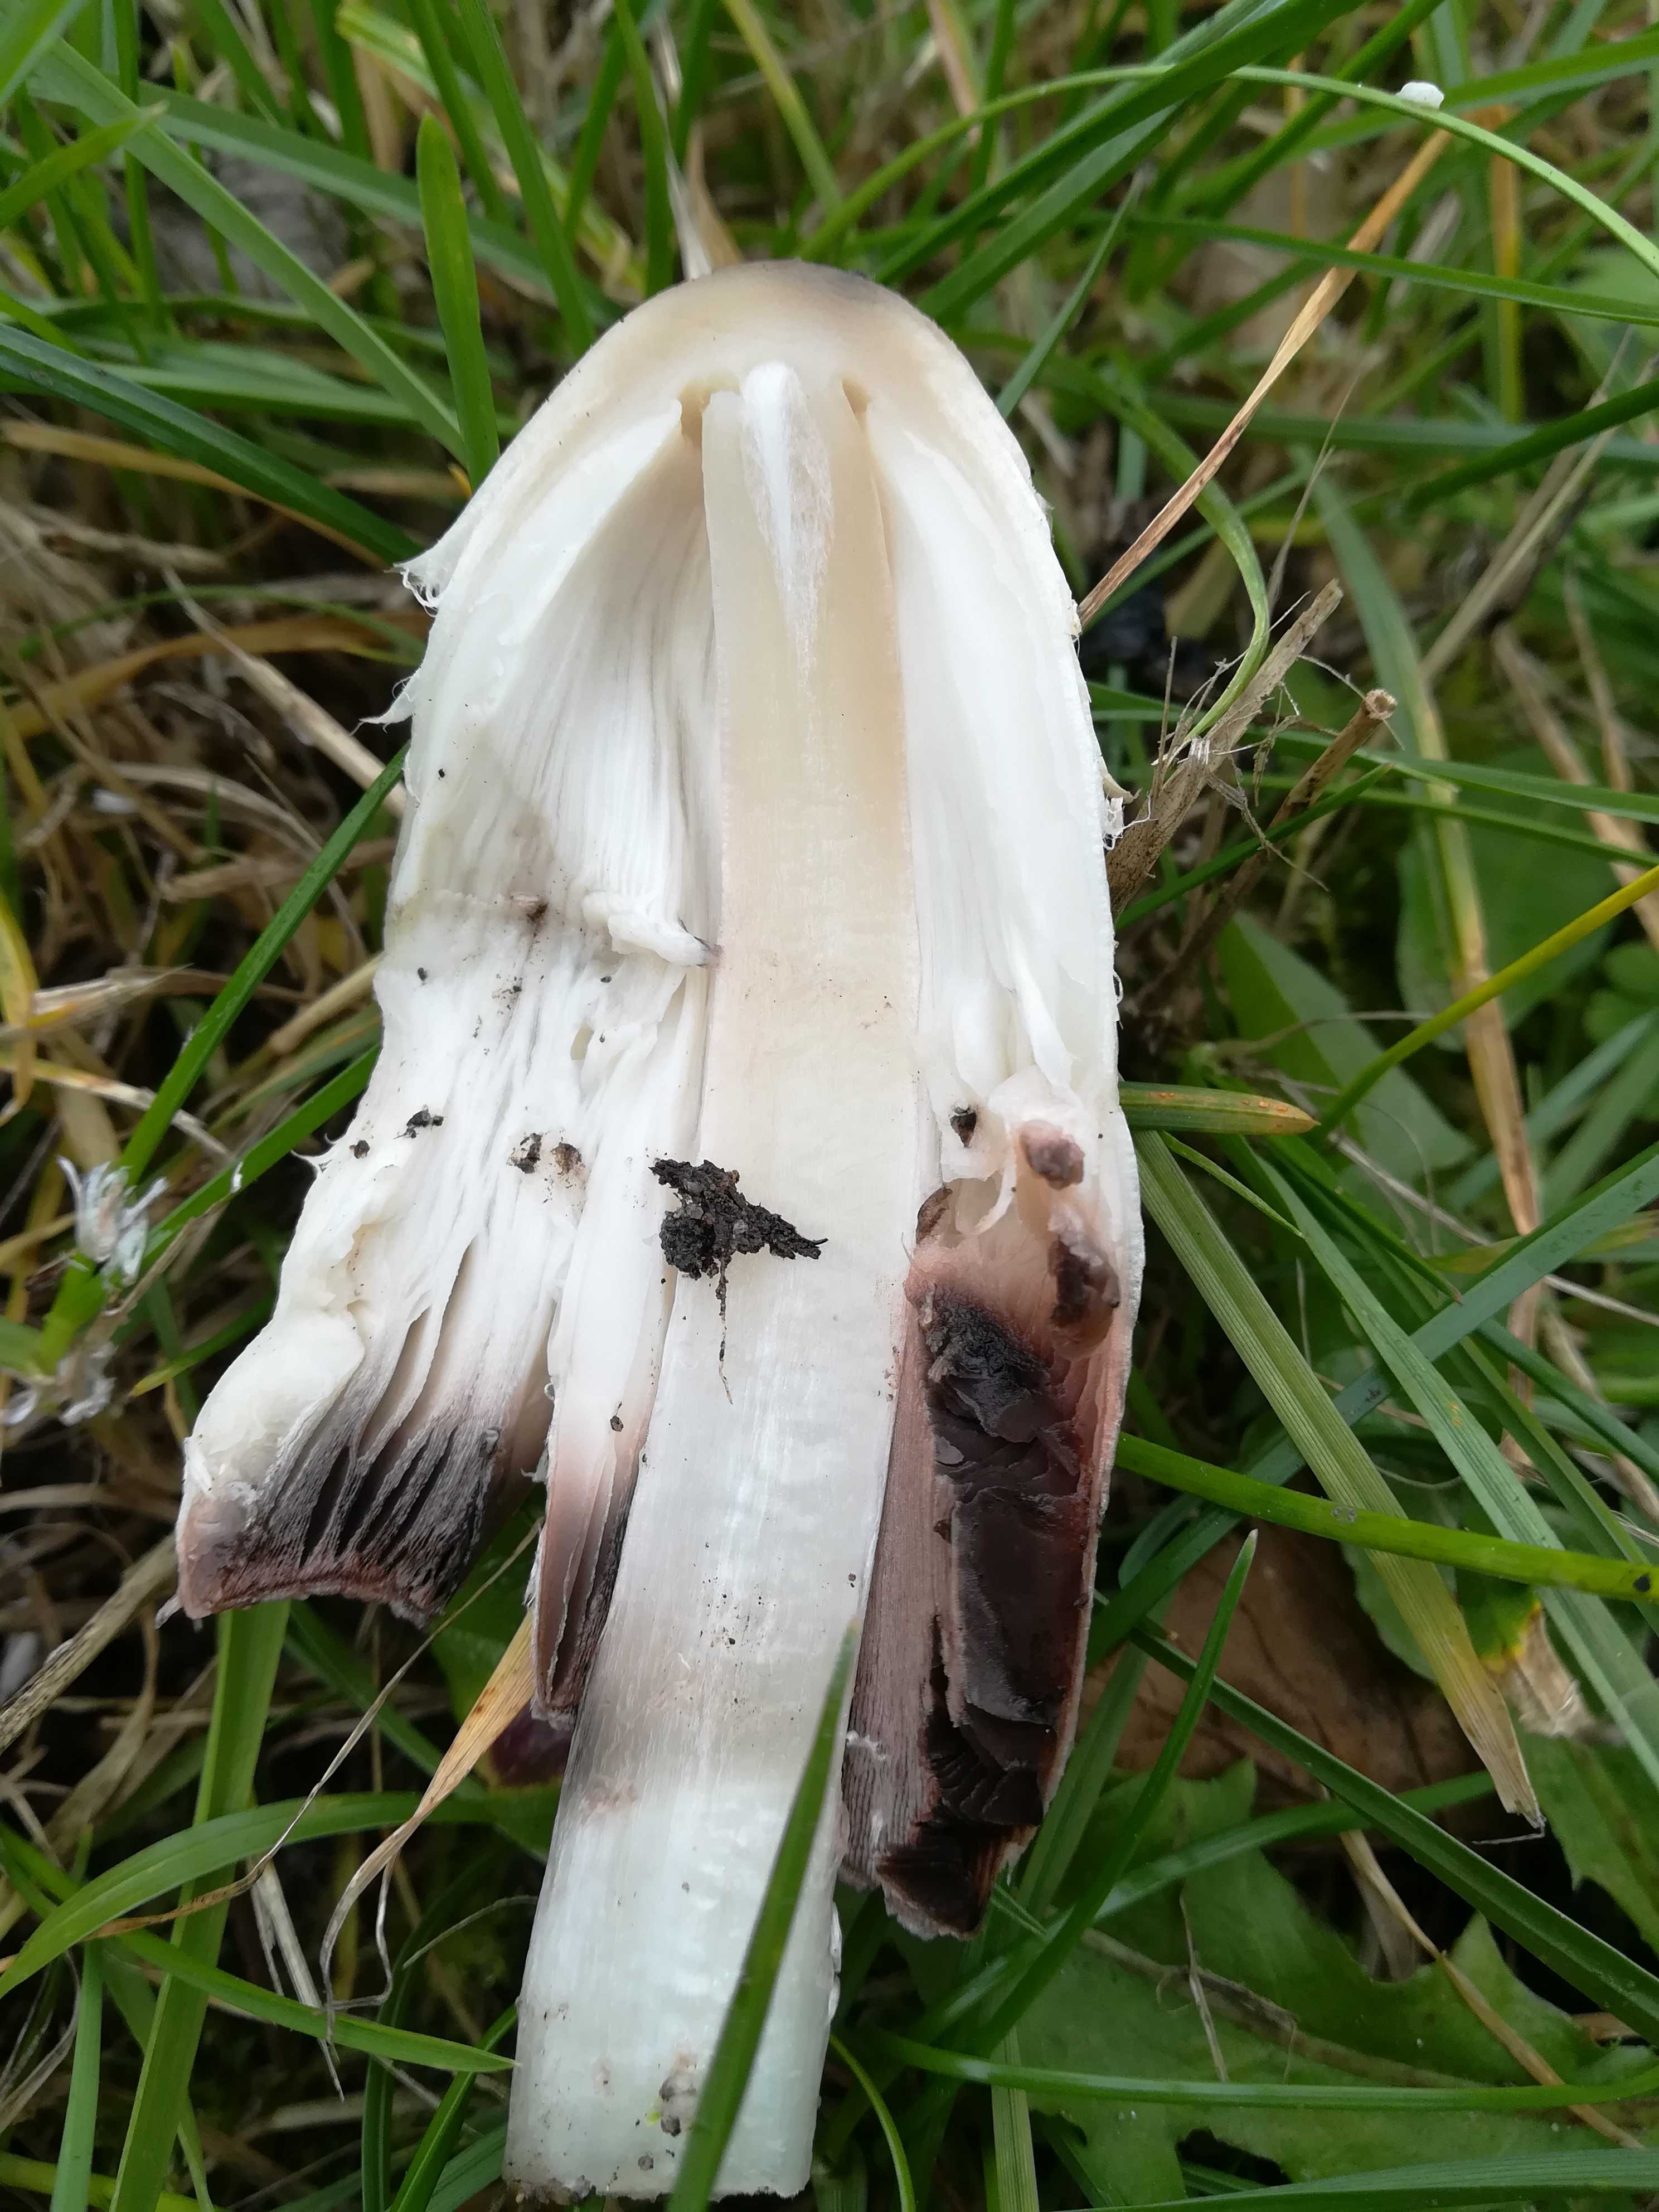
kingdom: Fungi
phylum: Basidiomycota
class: Agaricomycetes
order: Agaricales
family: Agaricaceae
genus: Coprinus
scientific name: Coprinus comatus
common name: stor parykhat
